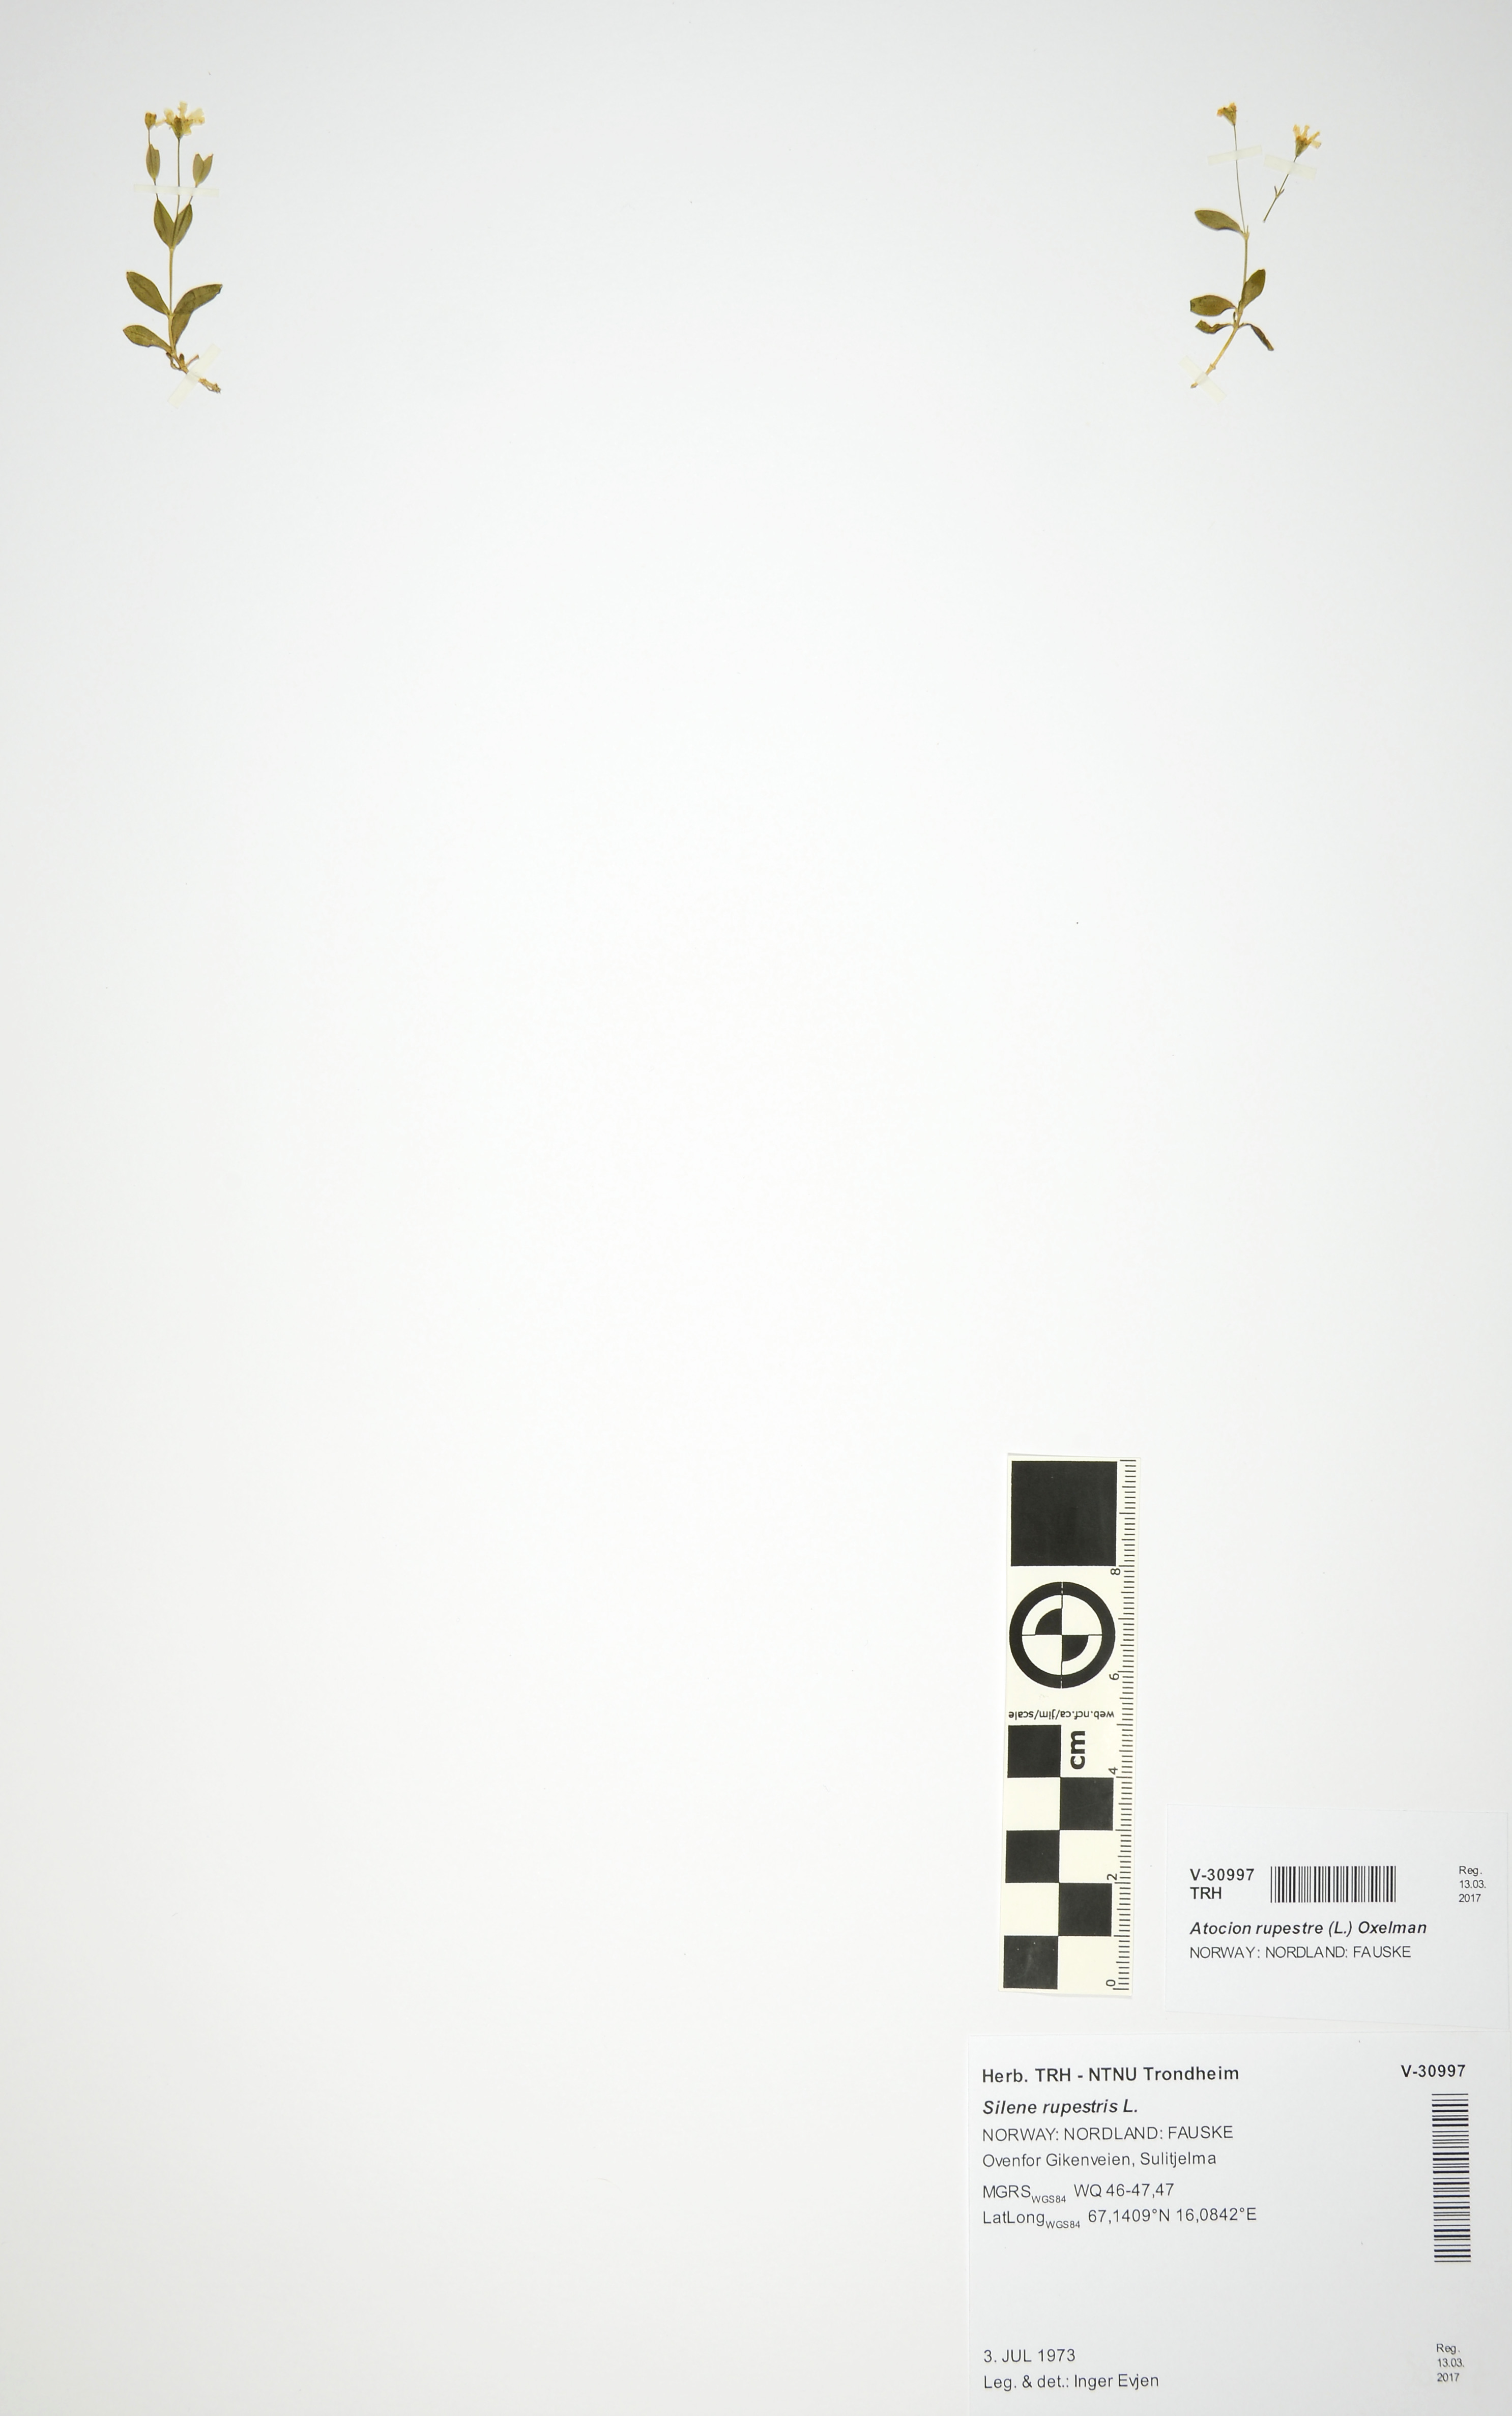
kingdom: Plantae
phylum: Tracheophyta
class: Magnoliopsida
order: Caryophyllales
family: Caryophyllaceae
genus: Atocion
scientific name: Atocion rupestre
